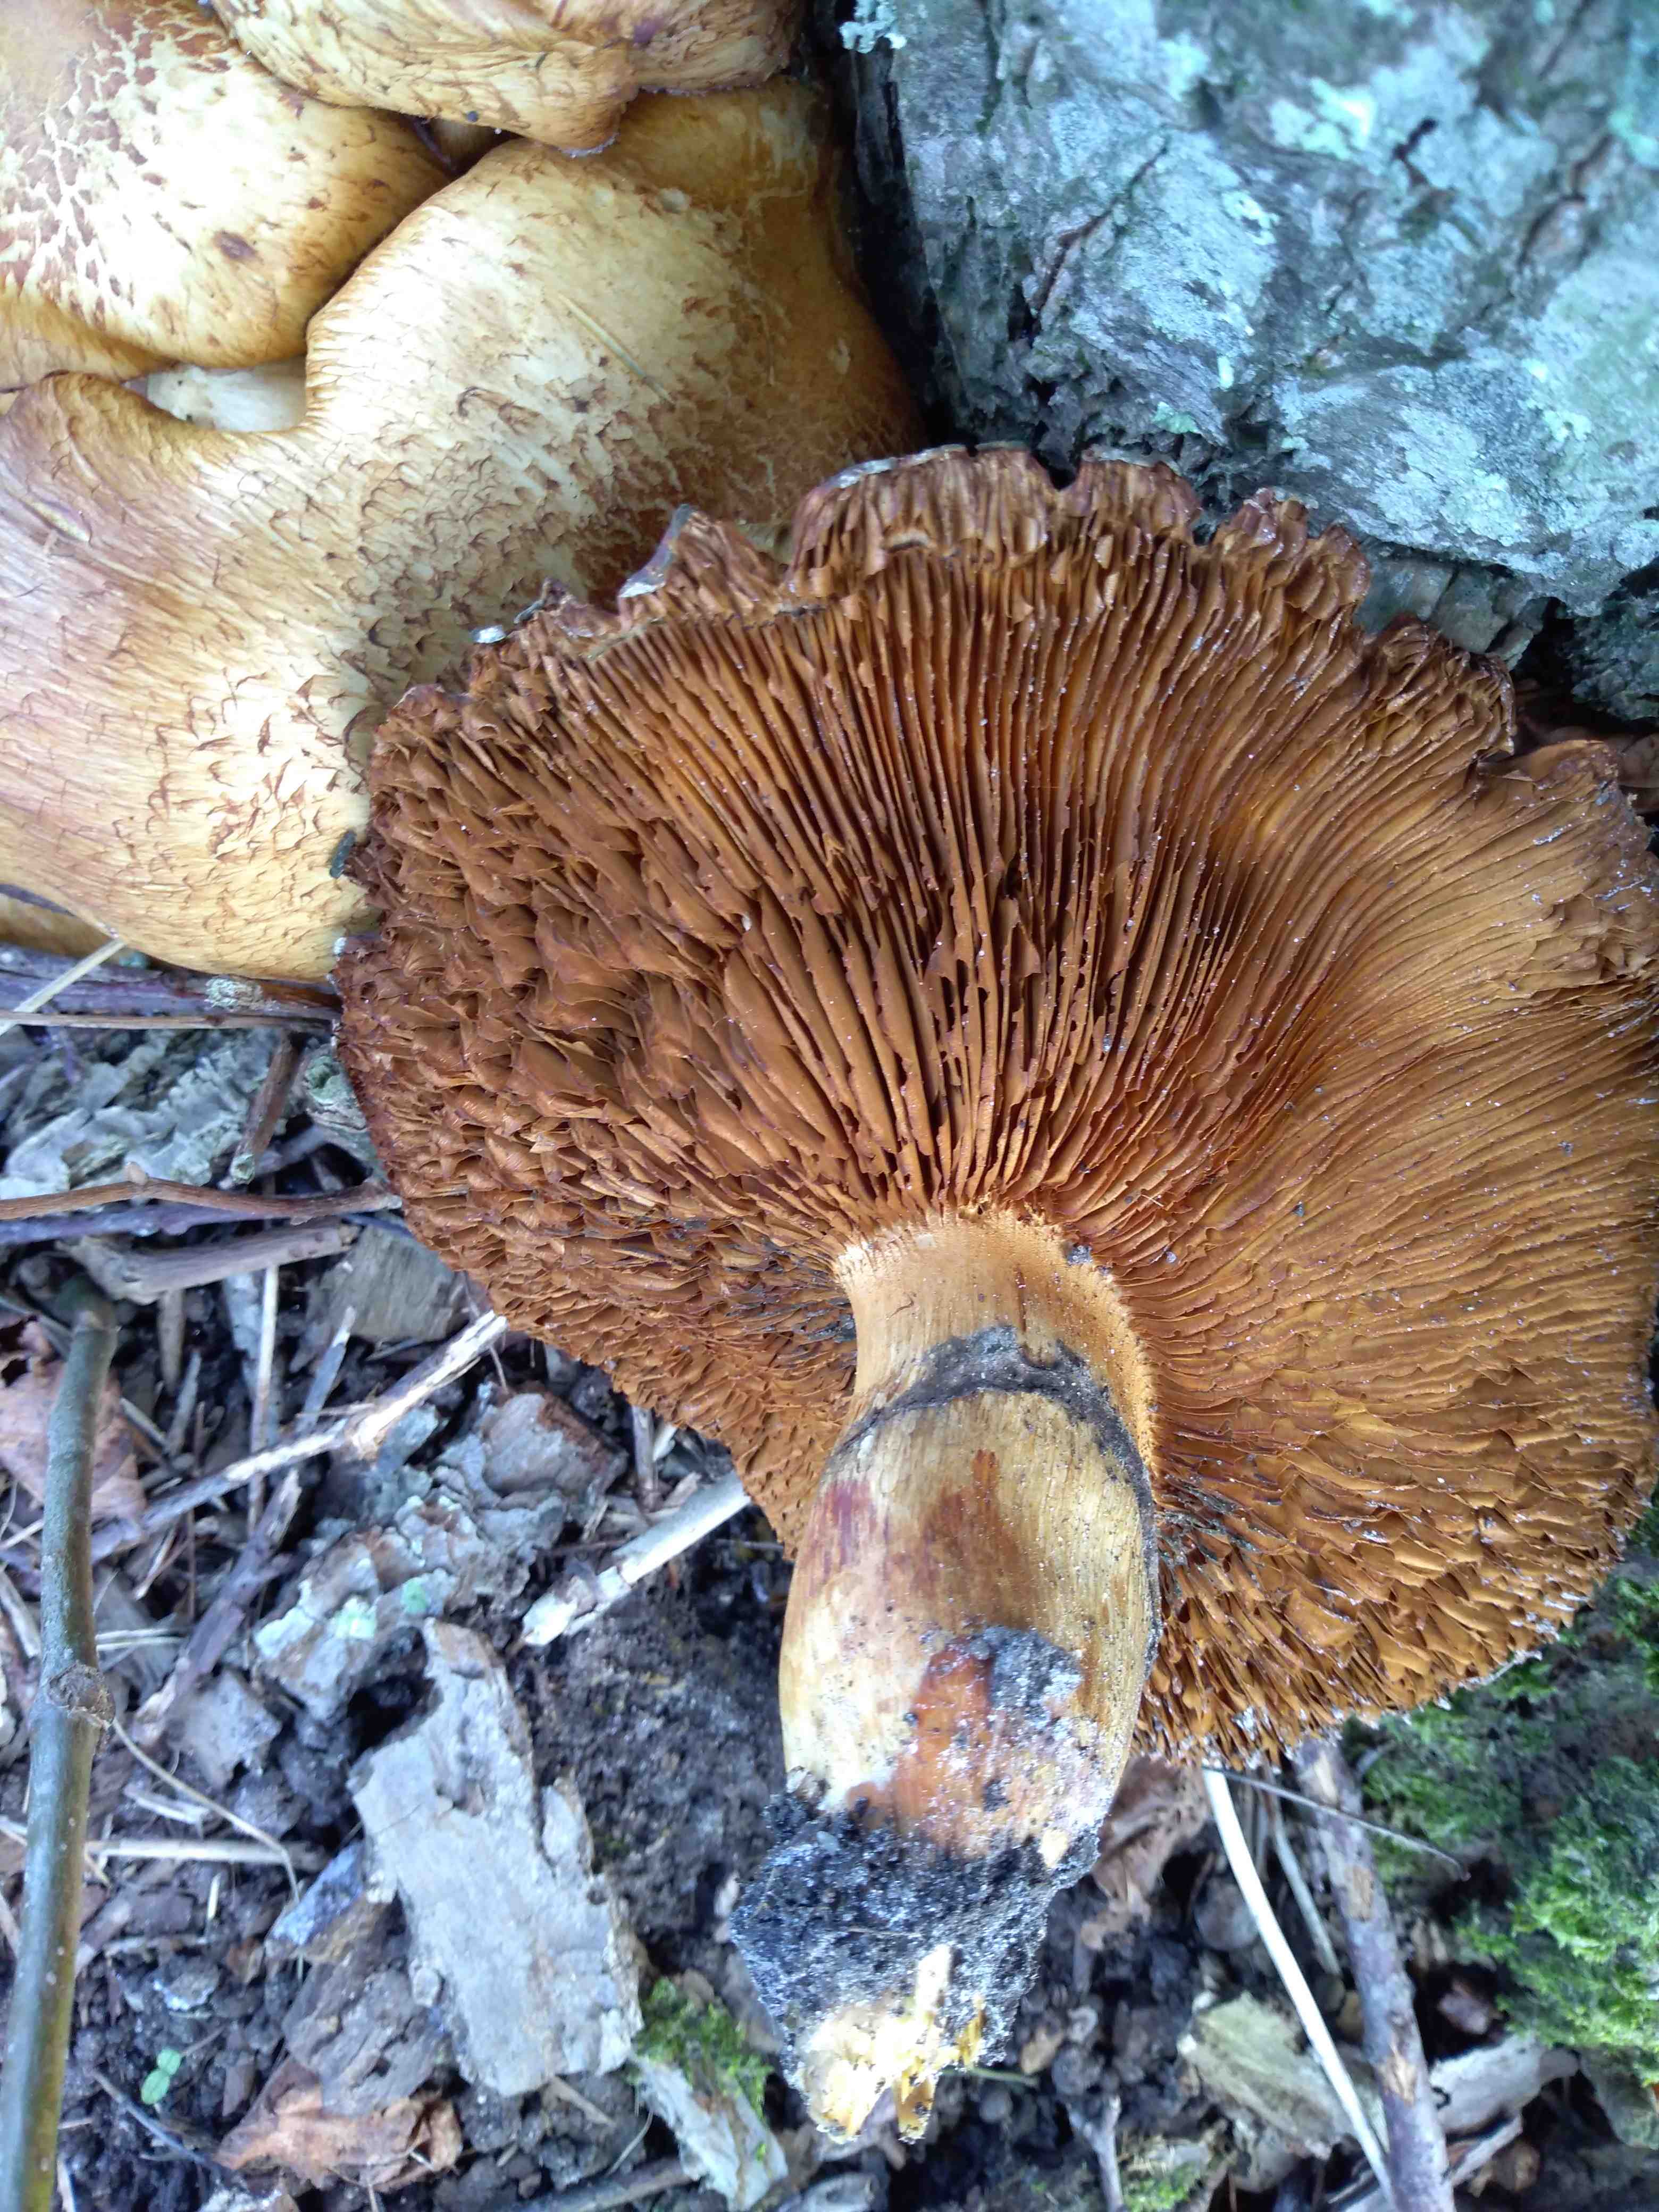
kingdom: Fungi
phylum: Basidiomycota
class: Agaricomycetes
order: Agaricales
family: Hymenogastraceae
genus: Gymnopilus
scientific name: Gymnopilus spectabilis
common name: fibret flammehat
